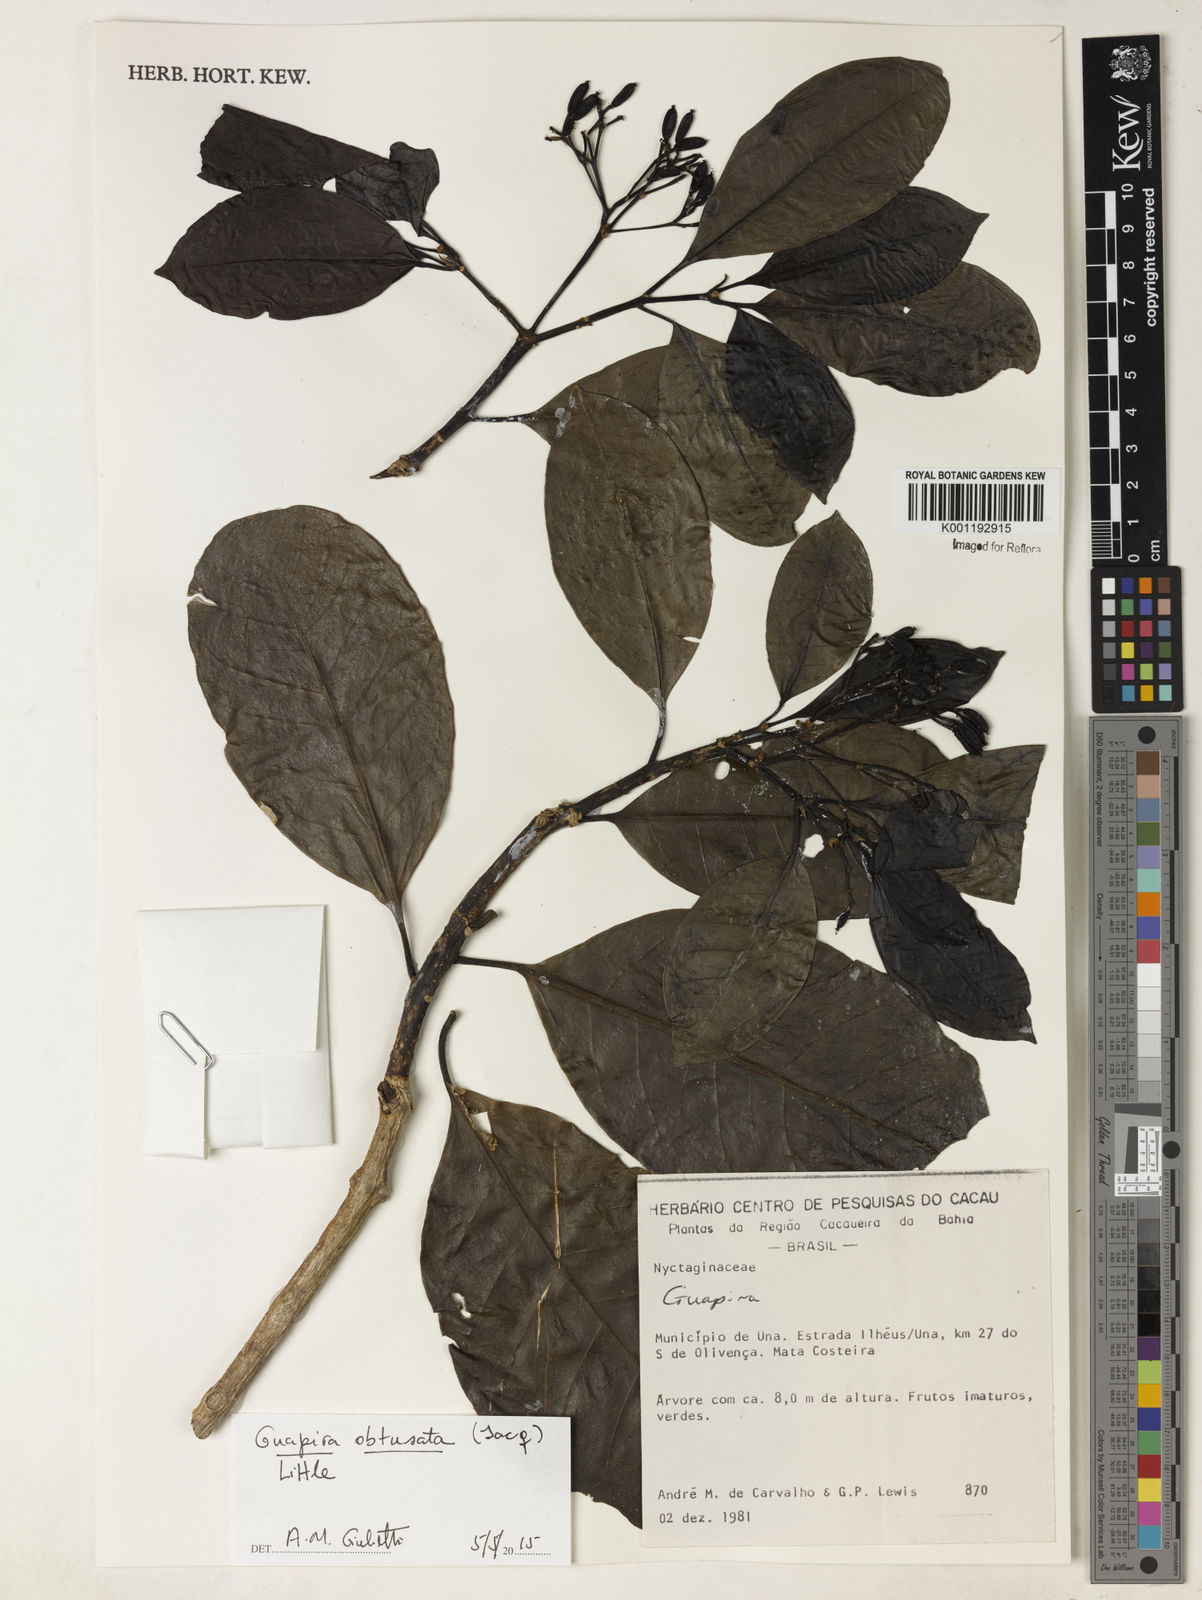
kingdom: Plantae
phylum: Tracheophyta
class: Magnoliopsida
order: Caryophyllales
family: Nyctaginaceae
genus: Guapira
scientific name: Guapira obtusata
